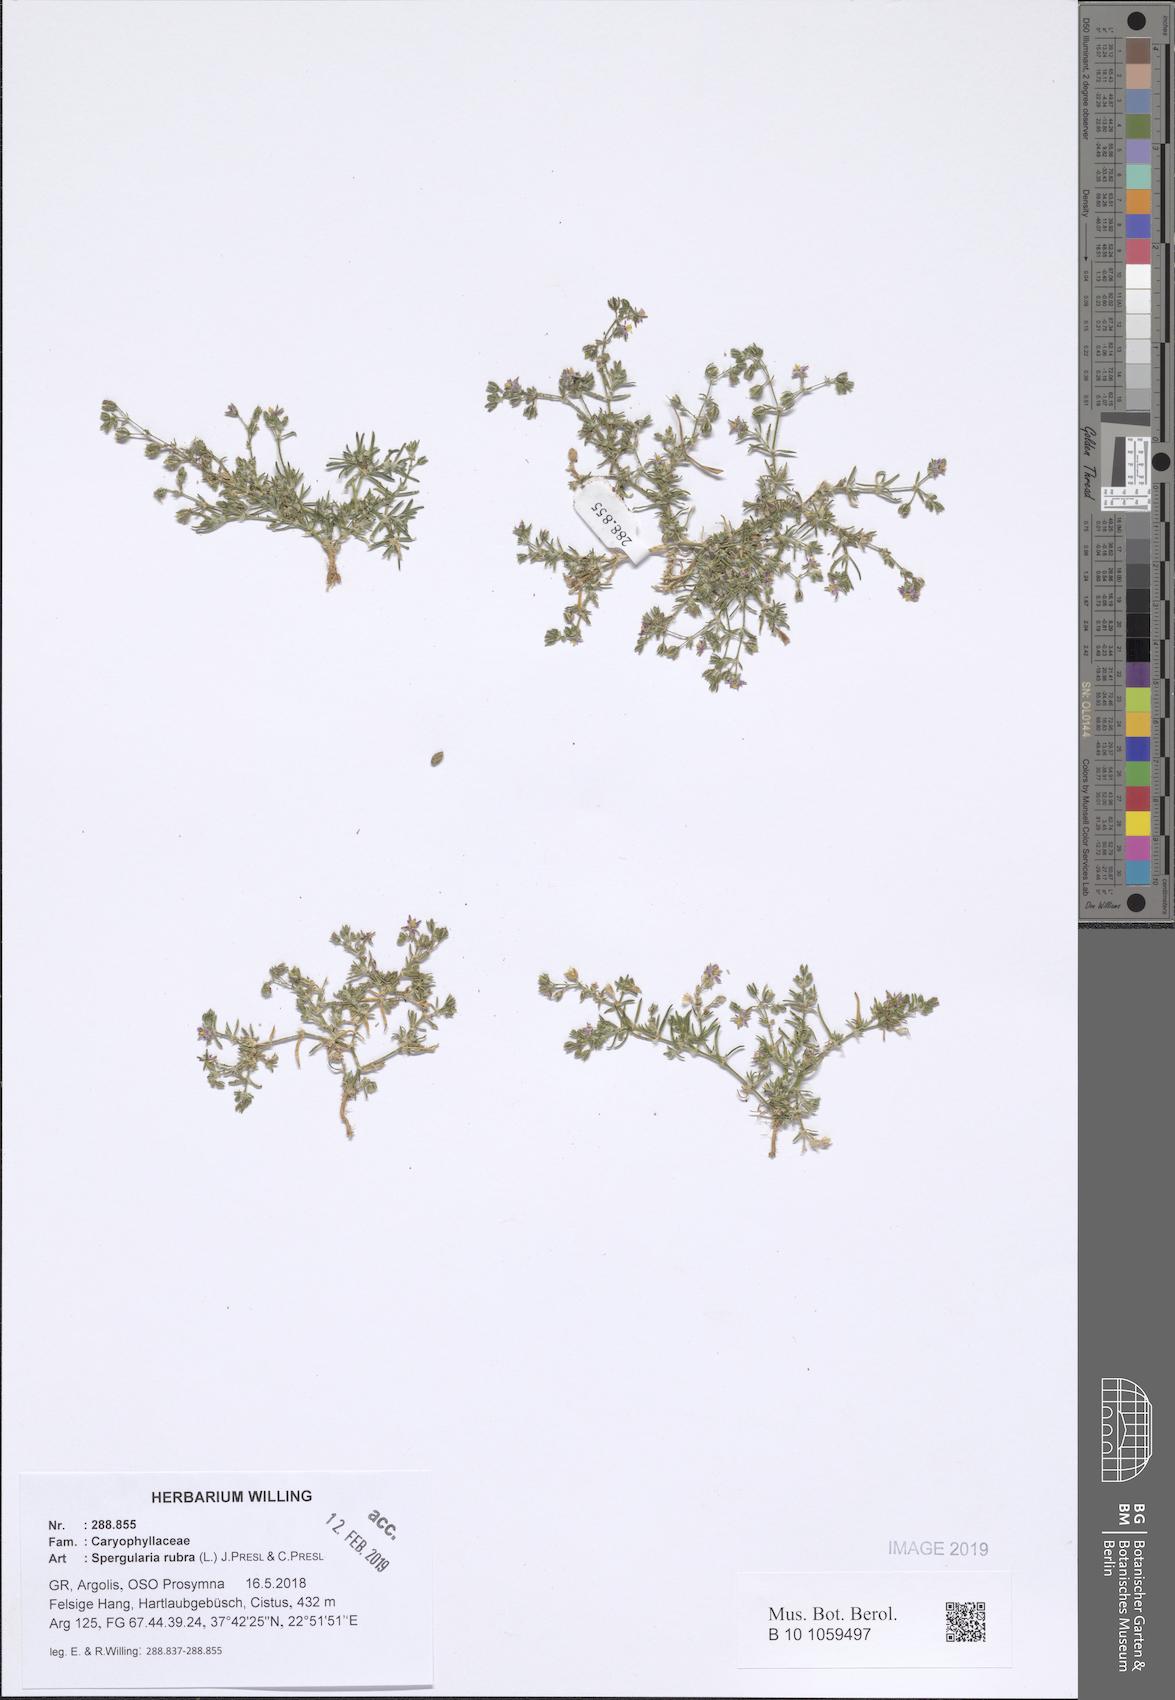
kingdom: Plantae
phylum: Tracheophyta
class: Magnoliopsida
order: Caryophyllales
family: Caryophyllaceae
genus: Spergularia
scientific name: Spergularia rubra
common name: Red sand-spurrey
